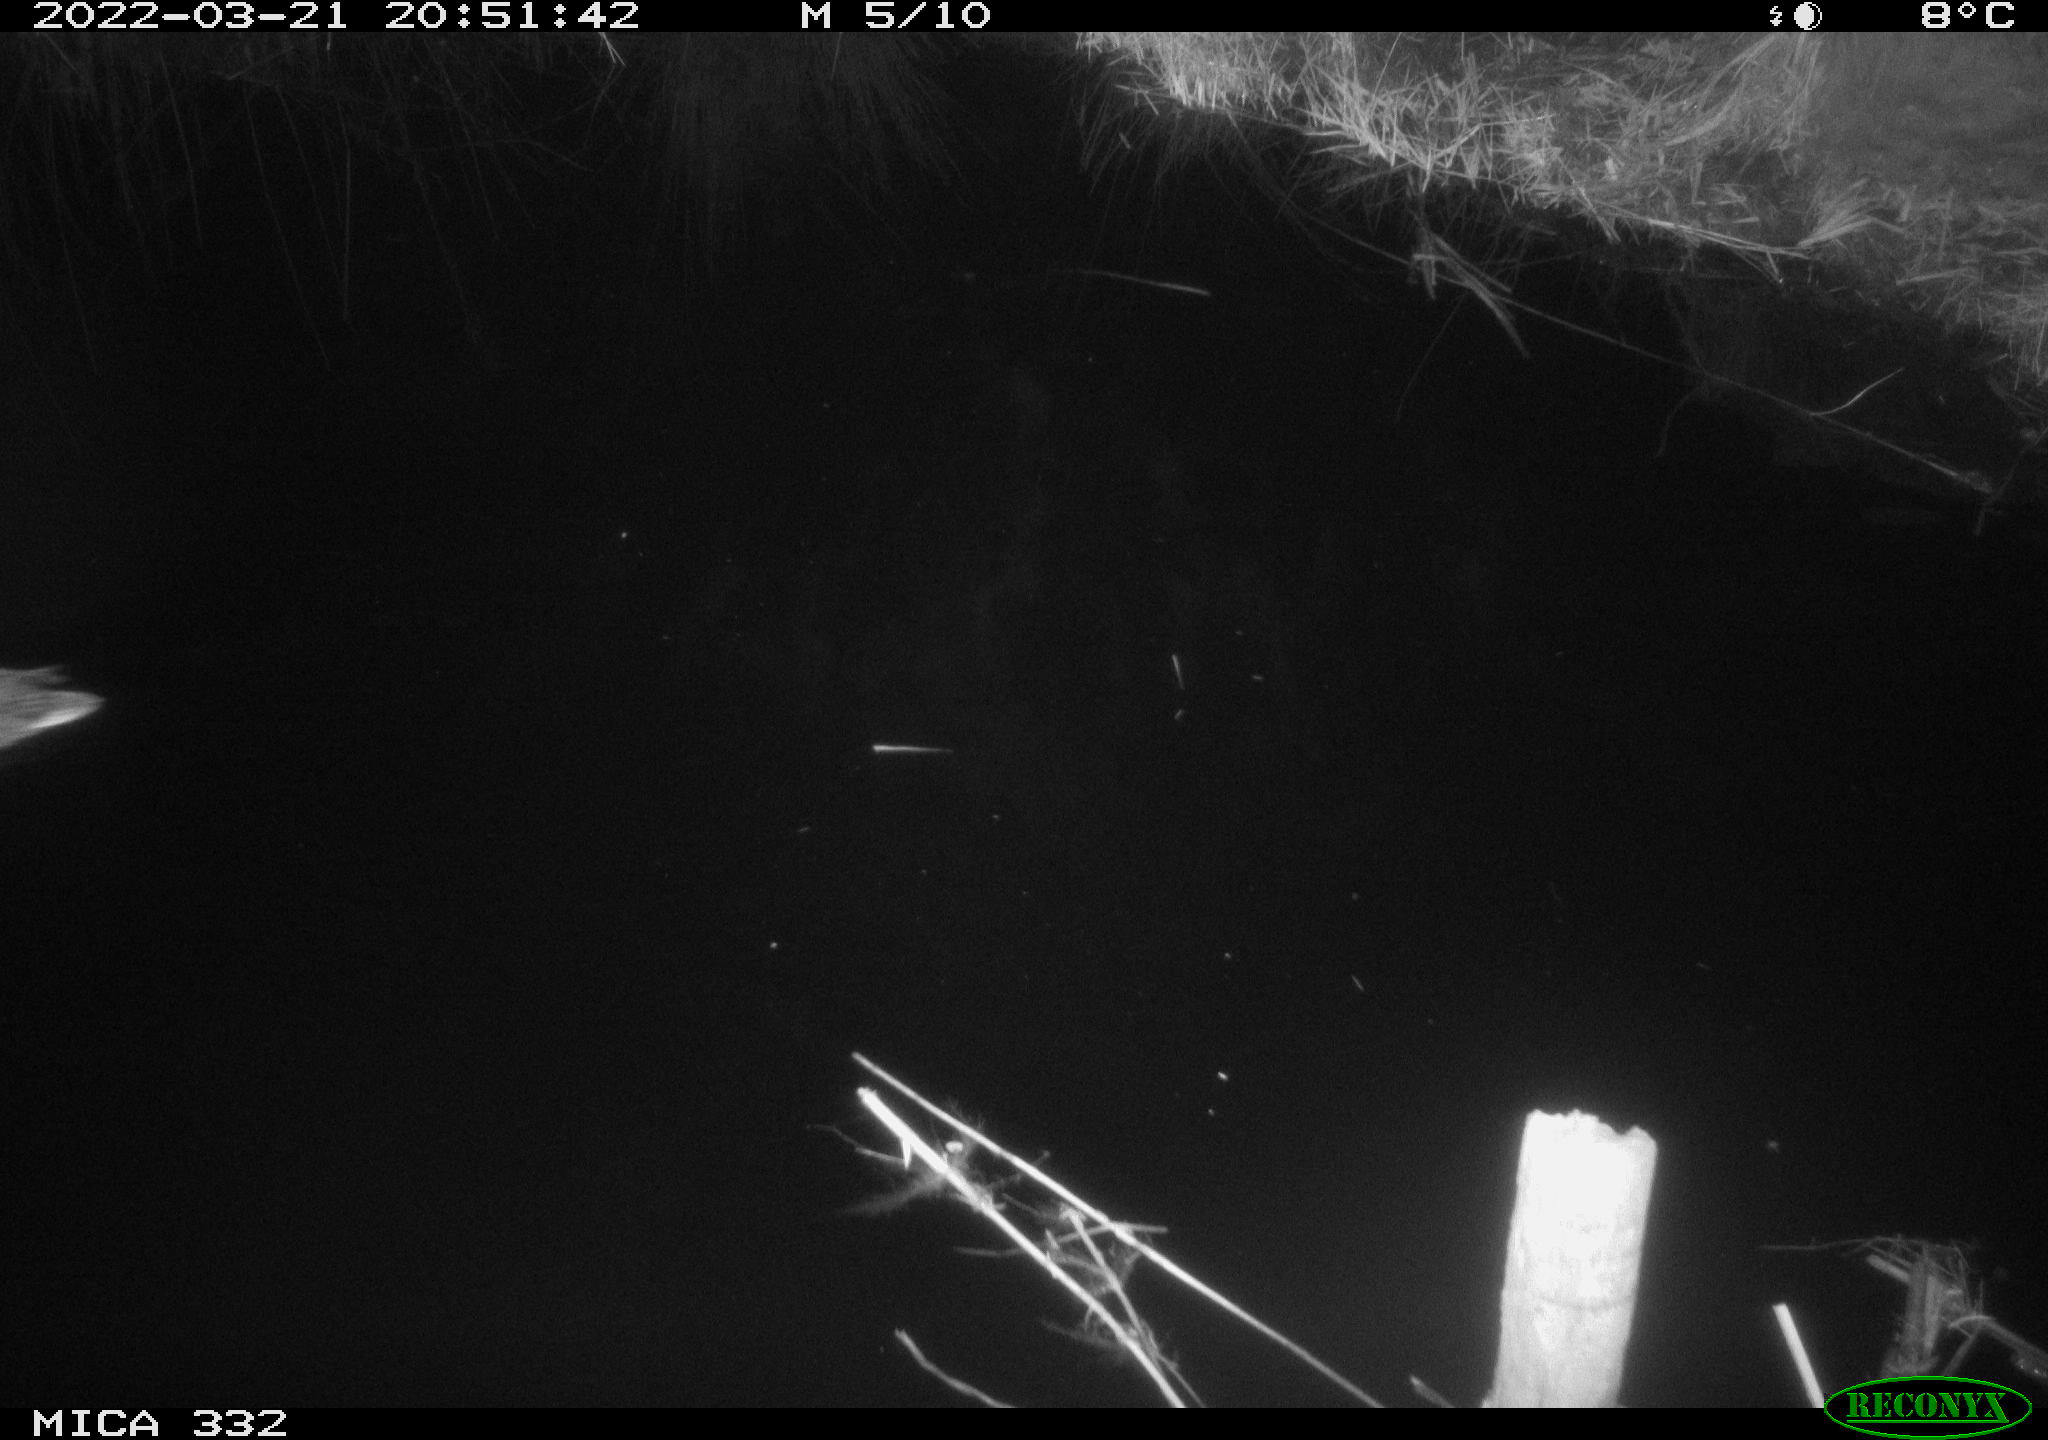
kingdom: Animalia
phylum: Chordata
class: Aves
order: Anseriformes
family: Anatidae
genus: Anas
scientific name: Anas platyrhynchos
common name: Mallard
